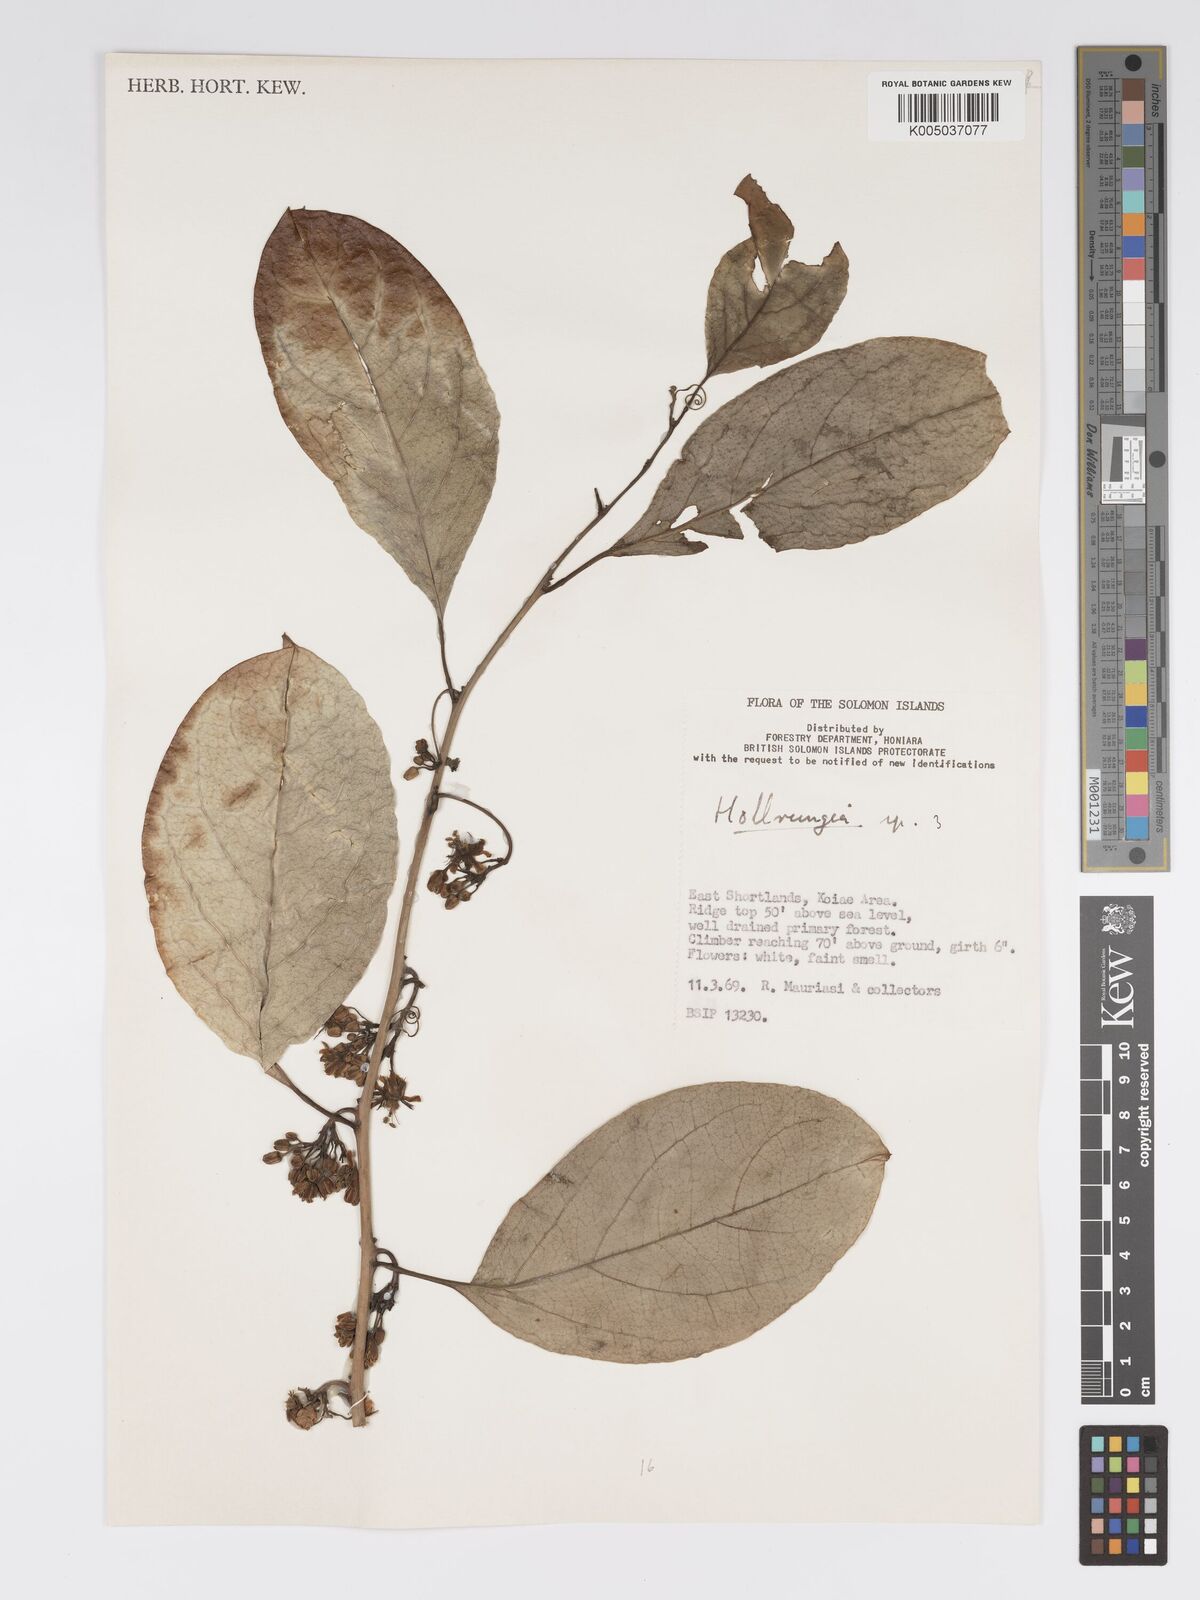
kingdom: Plantae
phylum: Tracheophyta
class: Magnoliopsida
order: Malpighiales
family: Passifloraceae
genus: Passiflora
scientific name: Passiflora aurantioides
